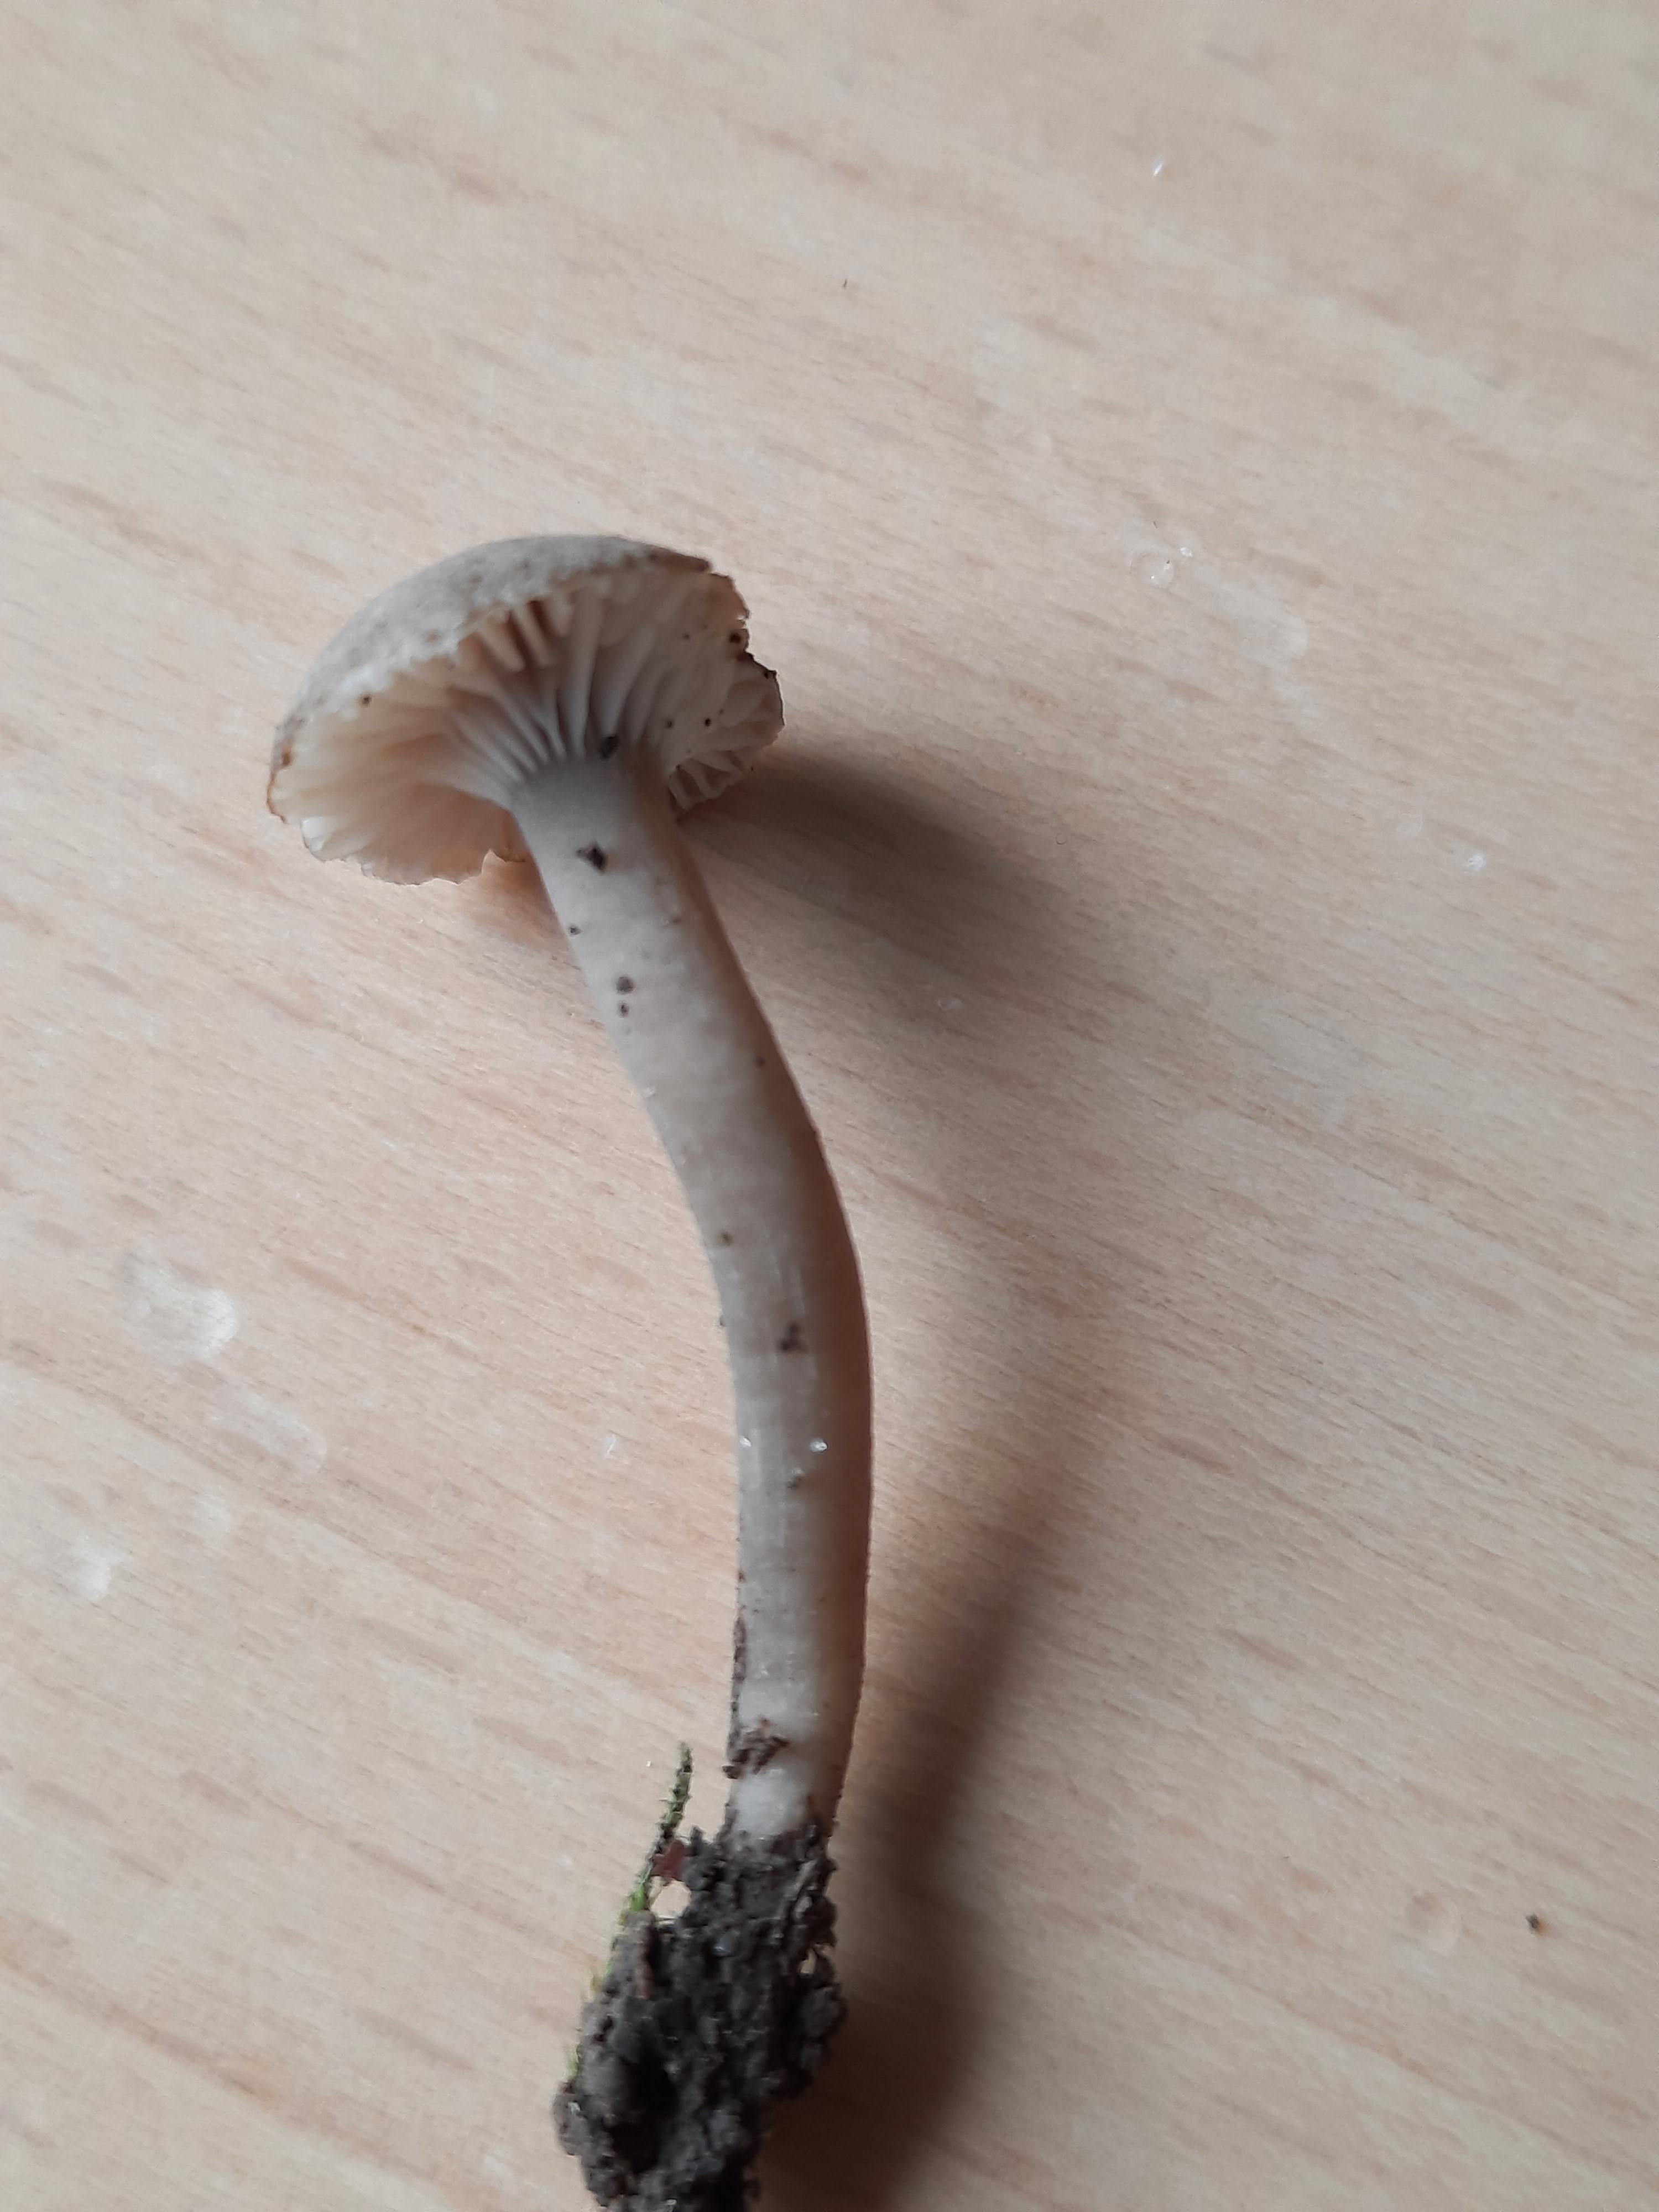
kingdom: Fungi
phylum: Basidiomycota
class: Agaricomycetes
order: Agaricales
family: Clavariaceae
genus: Camarophyllopsis
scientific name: Camarophyllopsis atrovelutina
